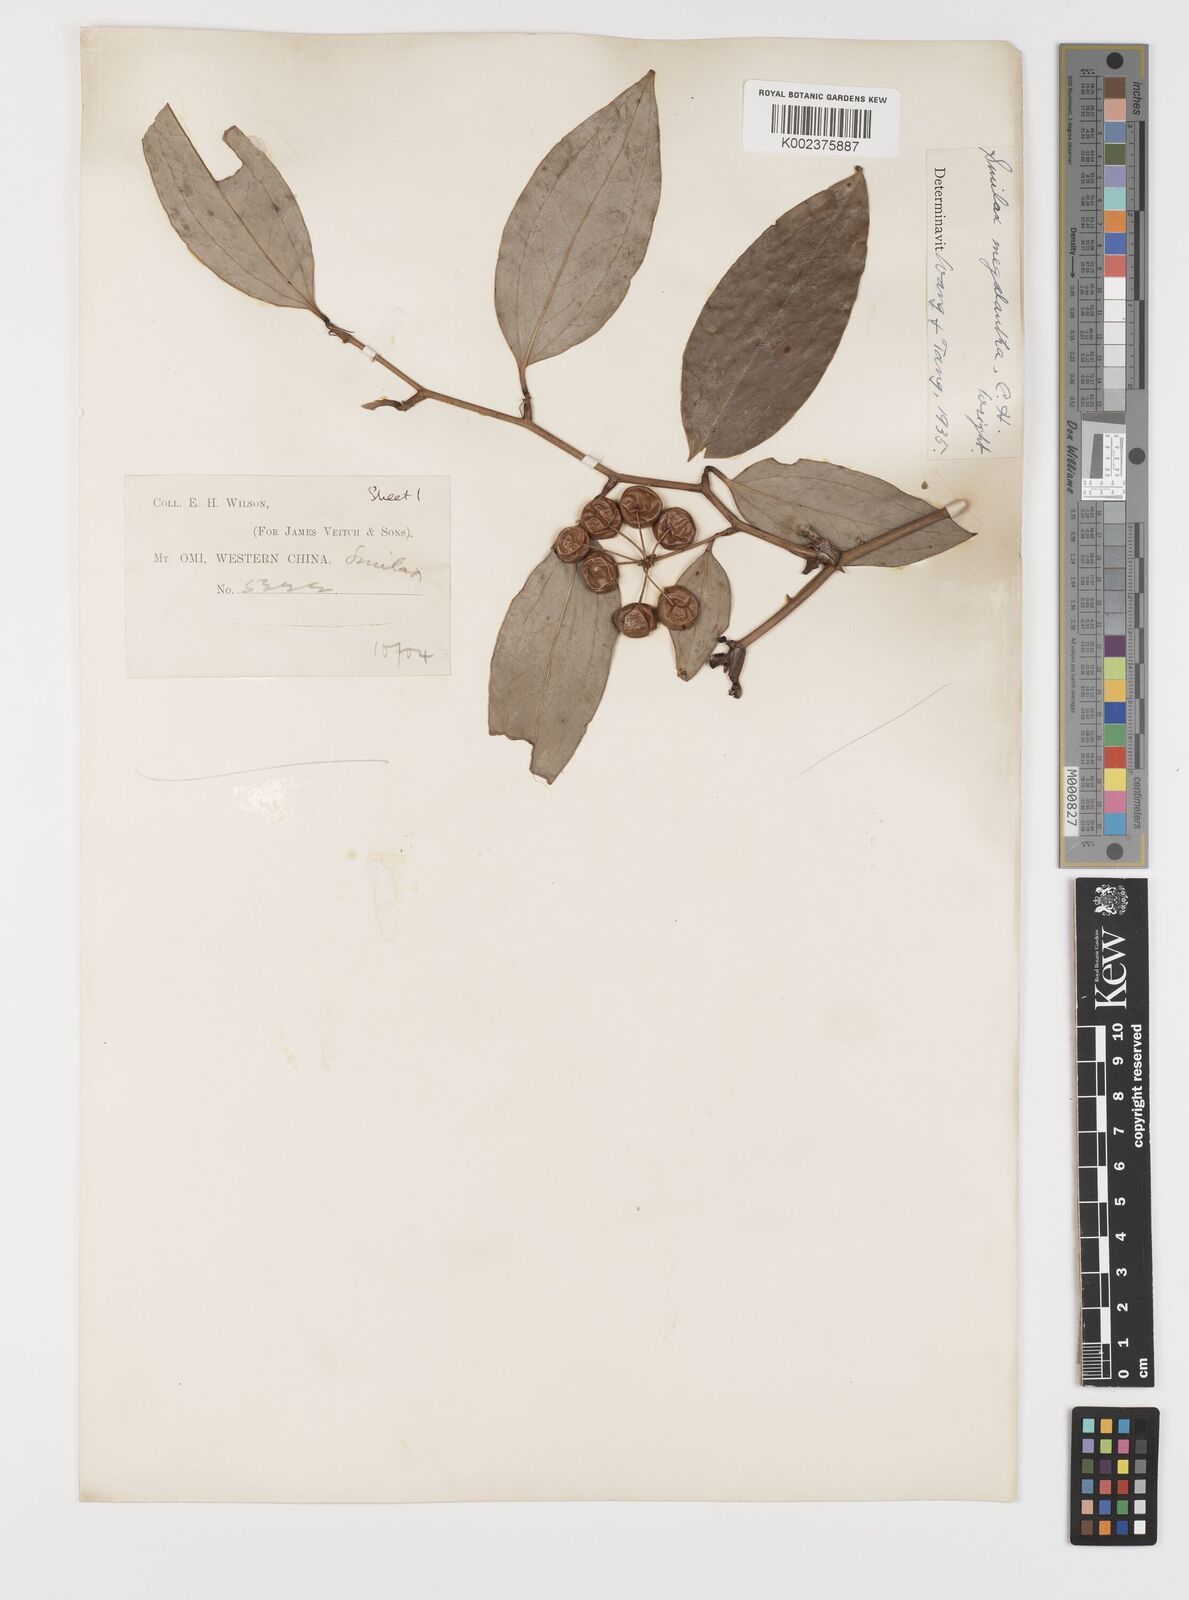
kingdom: Plantae
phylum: Tracheophyta
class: Liliopsida
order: Liliales
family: Smilacaceae
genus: Smilax
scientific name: Smilax megalantha
